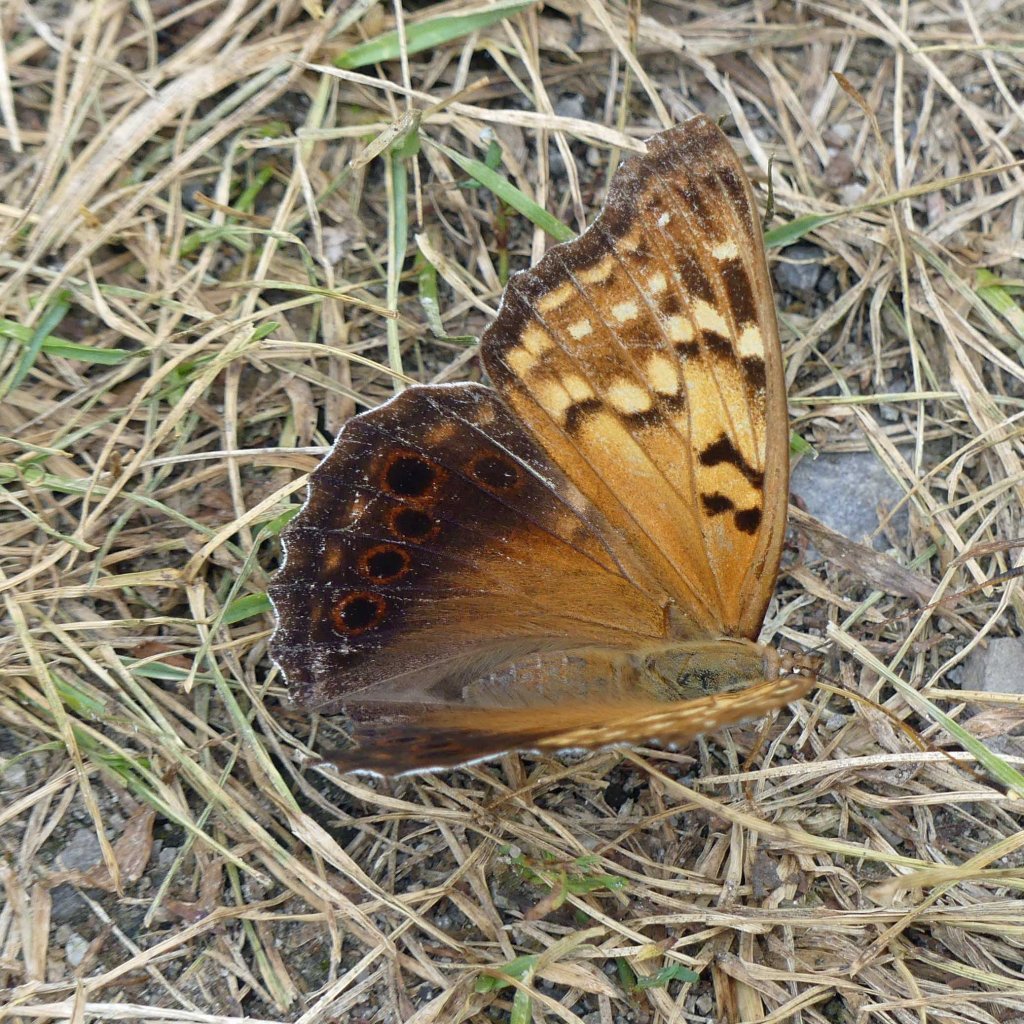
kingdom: Animalia
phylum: Arthropoda
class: Insecta
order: Lepidoptera
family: Nymphalidae
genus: Asterocampa
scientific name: Asterocampa clyton
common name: Tawny Emperor
